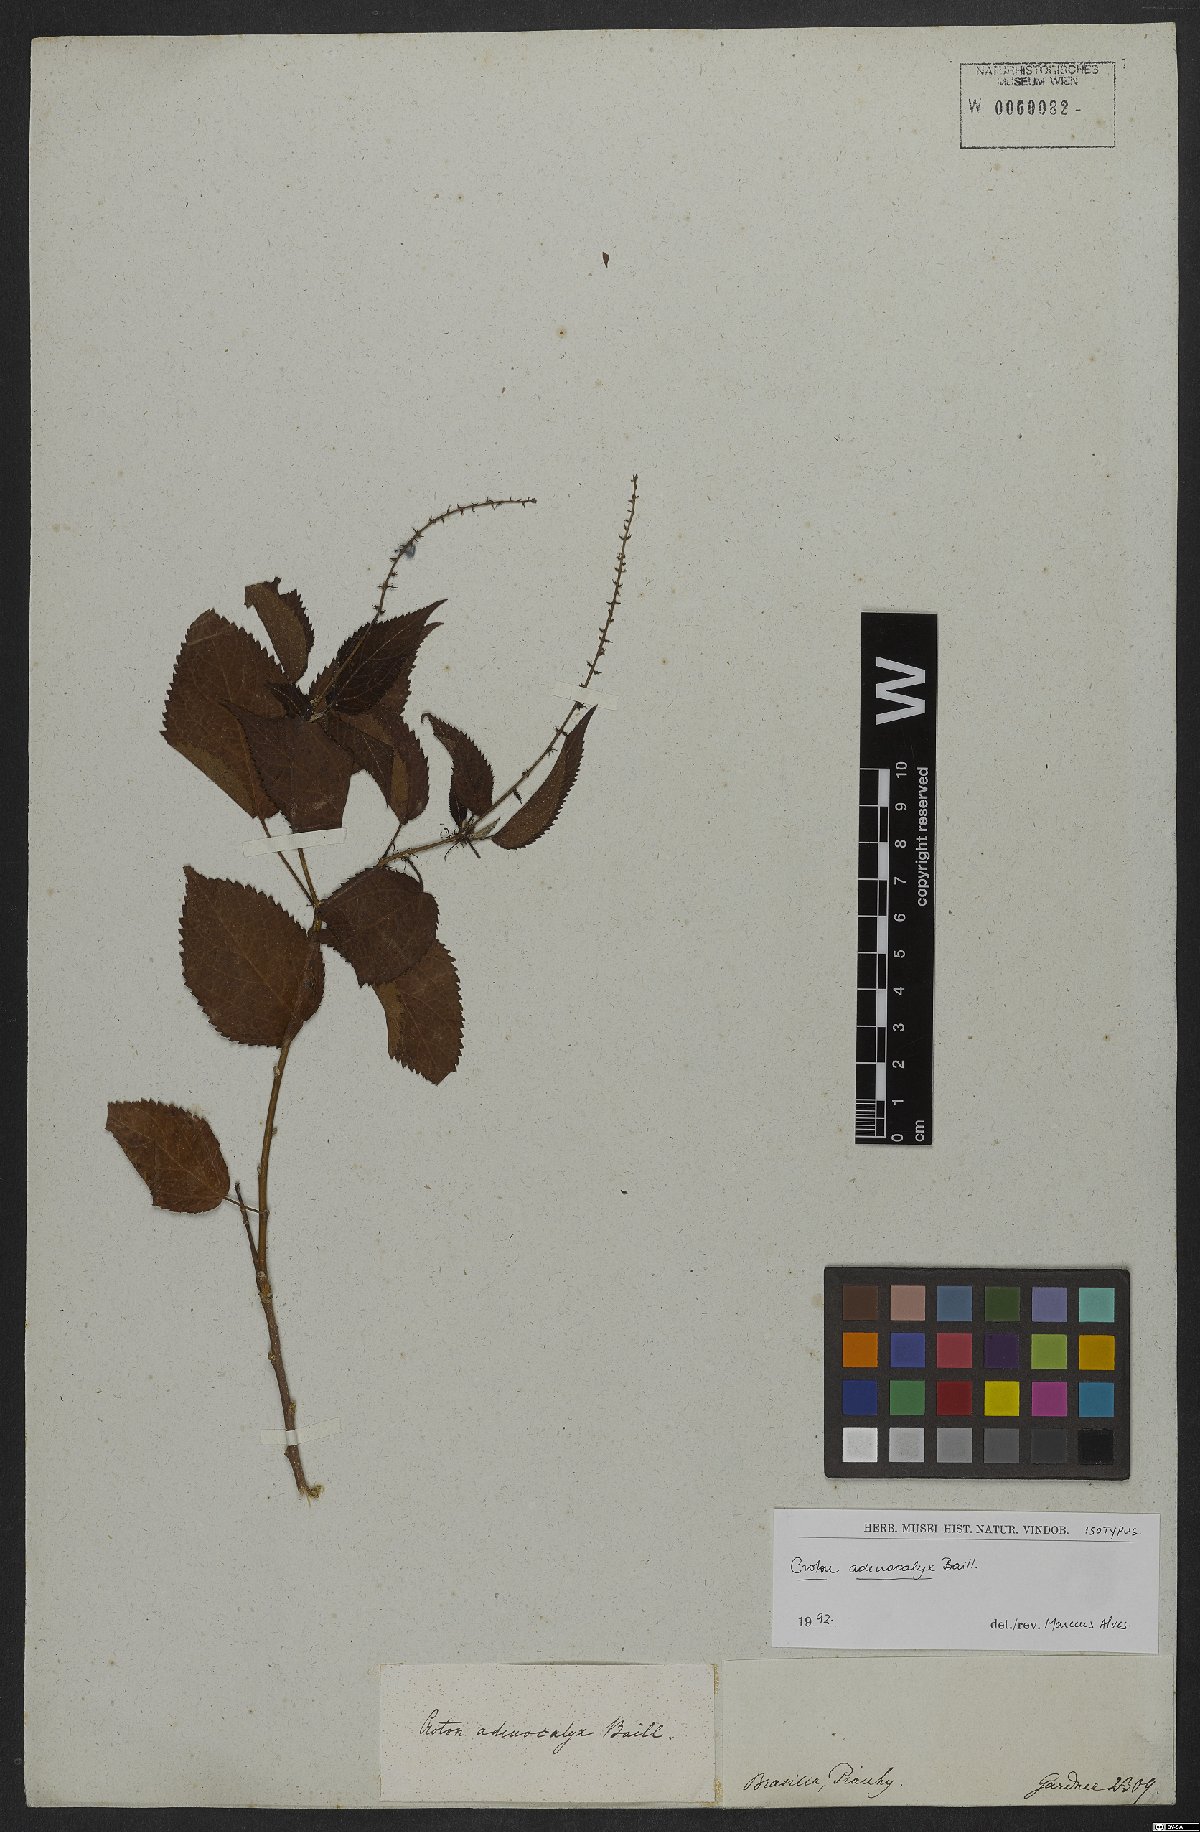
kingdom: Plantae
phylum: Tracheophyta
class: Magnoliopsida
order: Malpighiales
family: Euphorbiaceae
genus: Croton
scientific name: Croton adenocalyx
